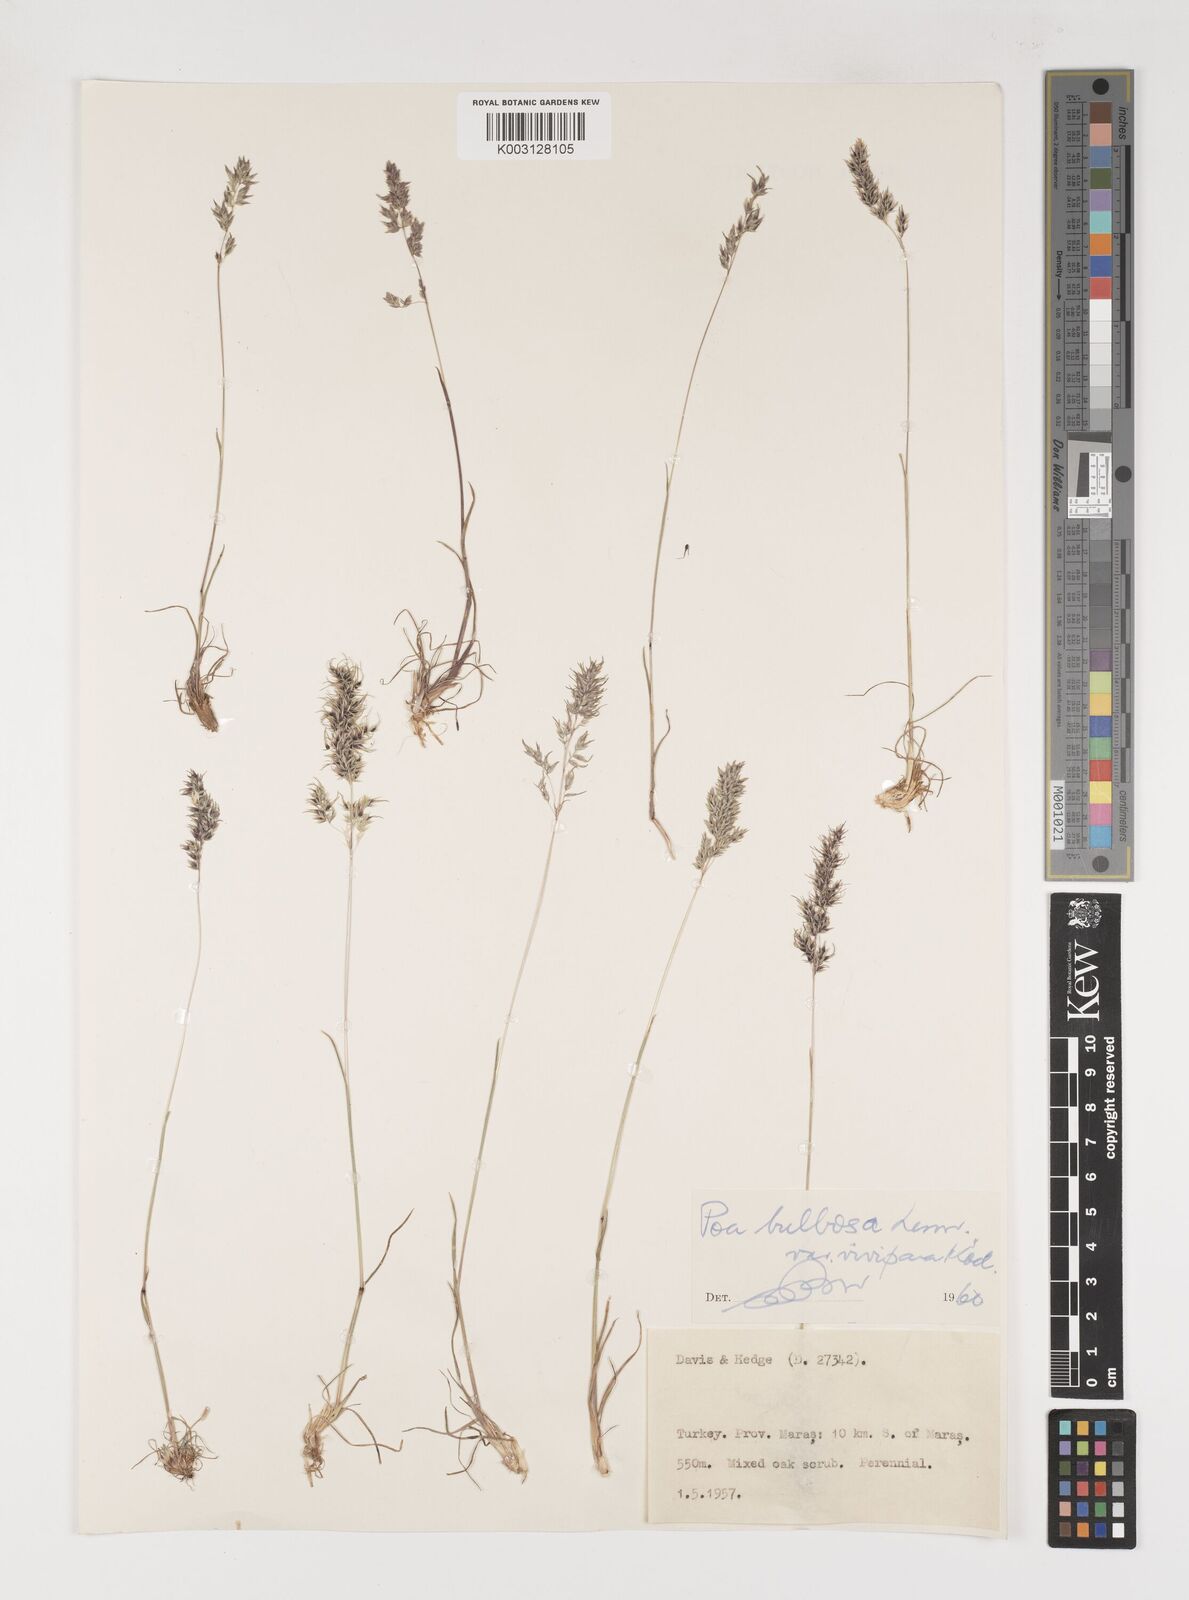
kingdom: Plantae
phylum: Tracheophyta
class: Liliopsida
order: Poales
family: Poaceae
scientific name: Poaceae
